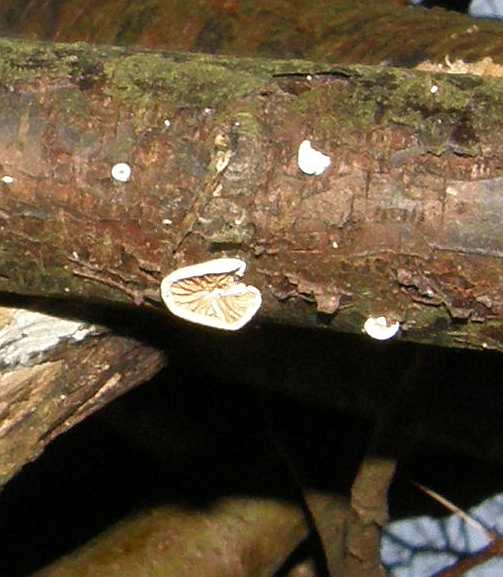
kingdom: Fungi
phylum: Basidiomycota
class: Agaricomycetes
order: Agaricales
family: Crepidotaceae
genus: Crepidotus
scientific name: Crepidotus cesatii
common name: almindelig muslingesvamp
